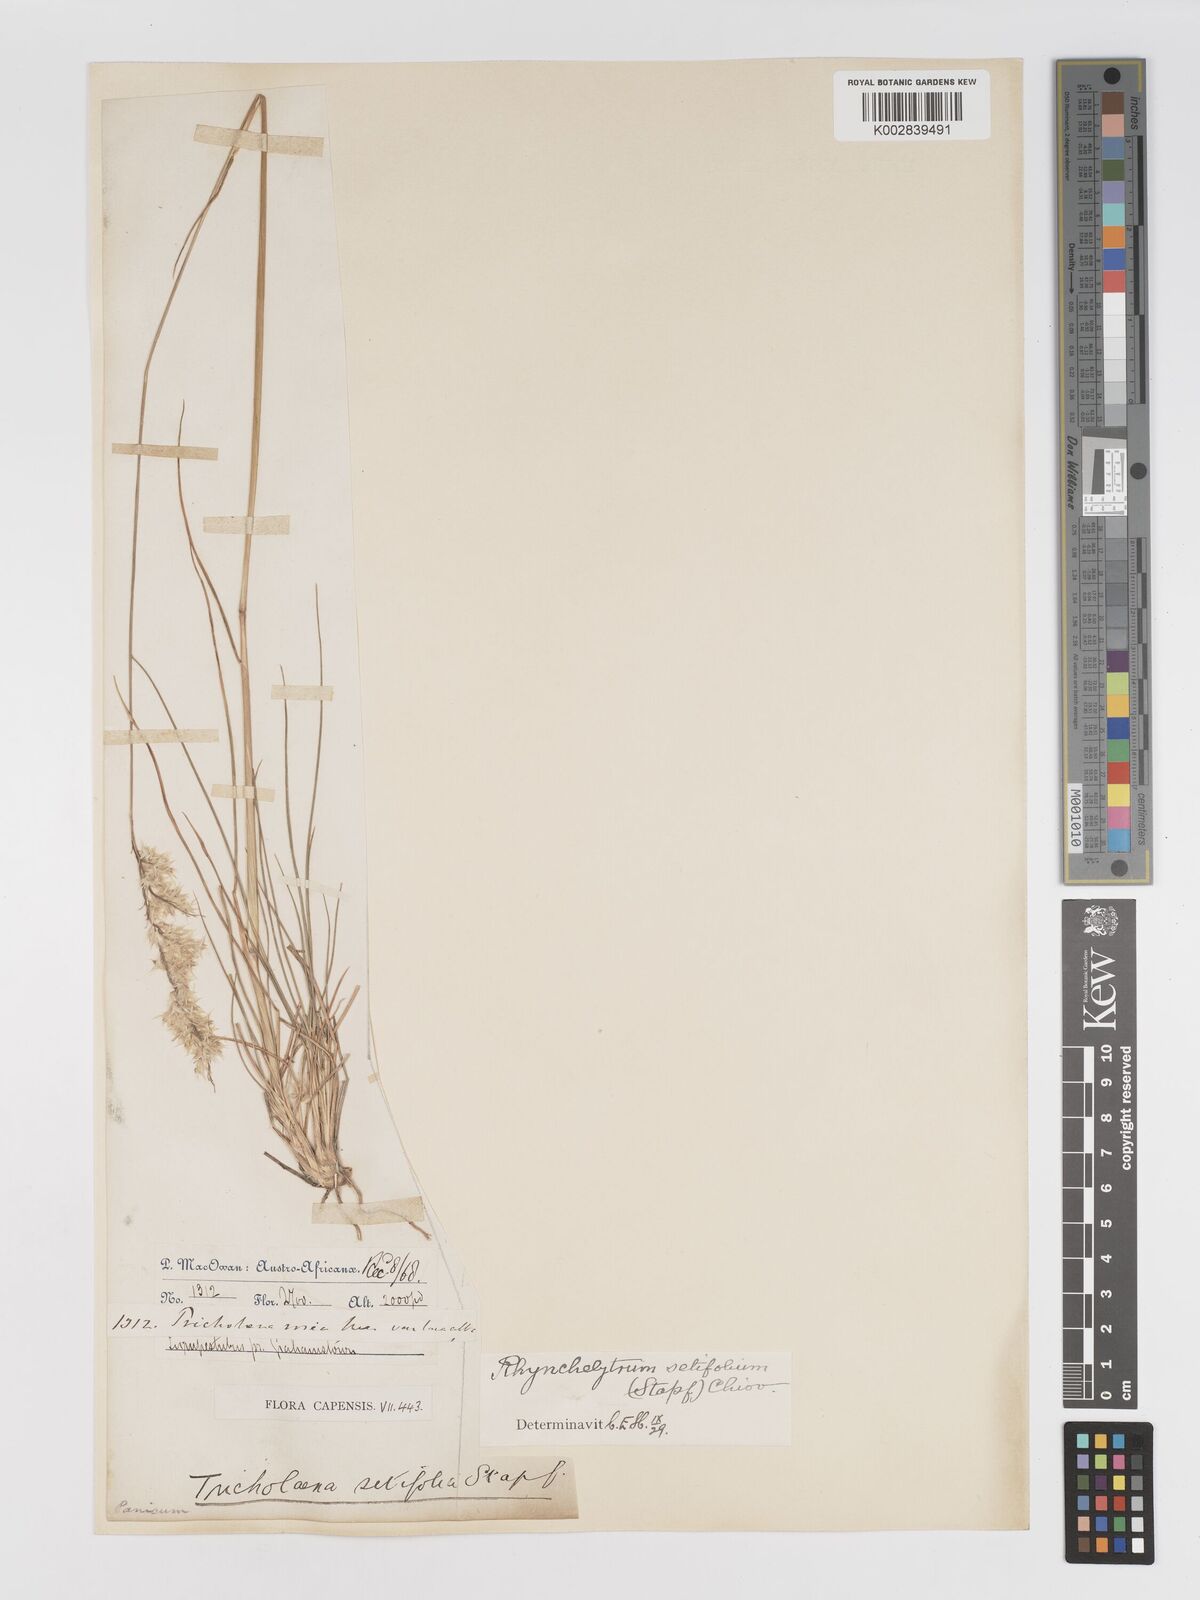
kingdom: Plantae
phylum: Tracheophyta
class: Liliopsida
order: Poales
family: Poaceae
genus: Melinis
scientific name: Melinis nerviglumis
